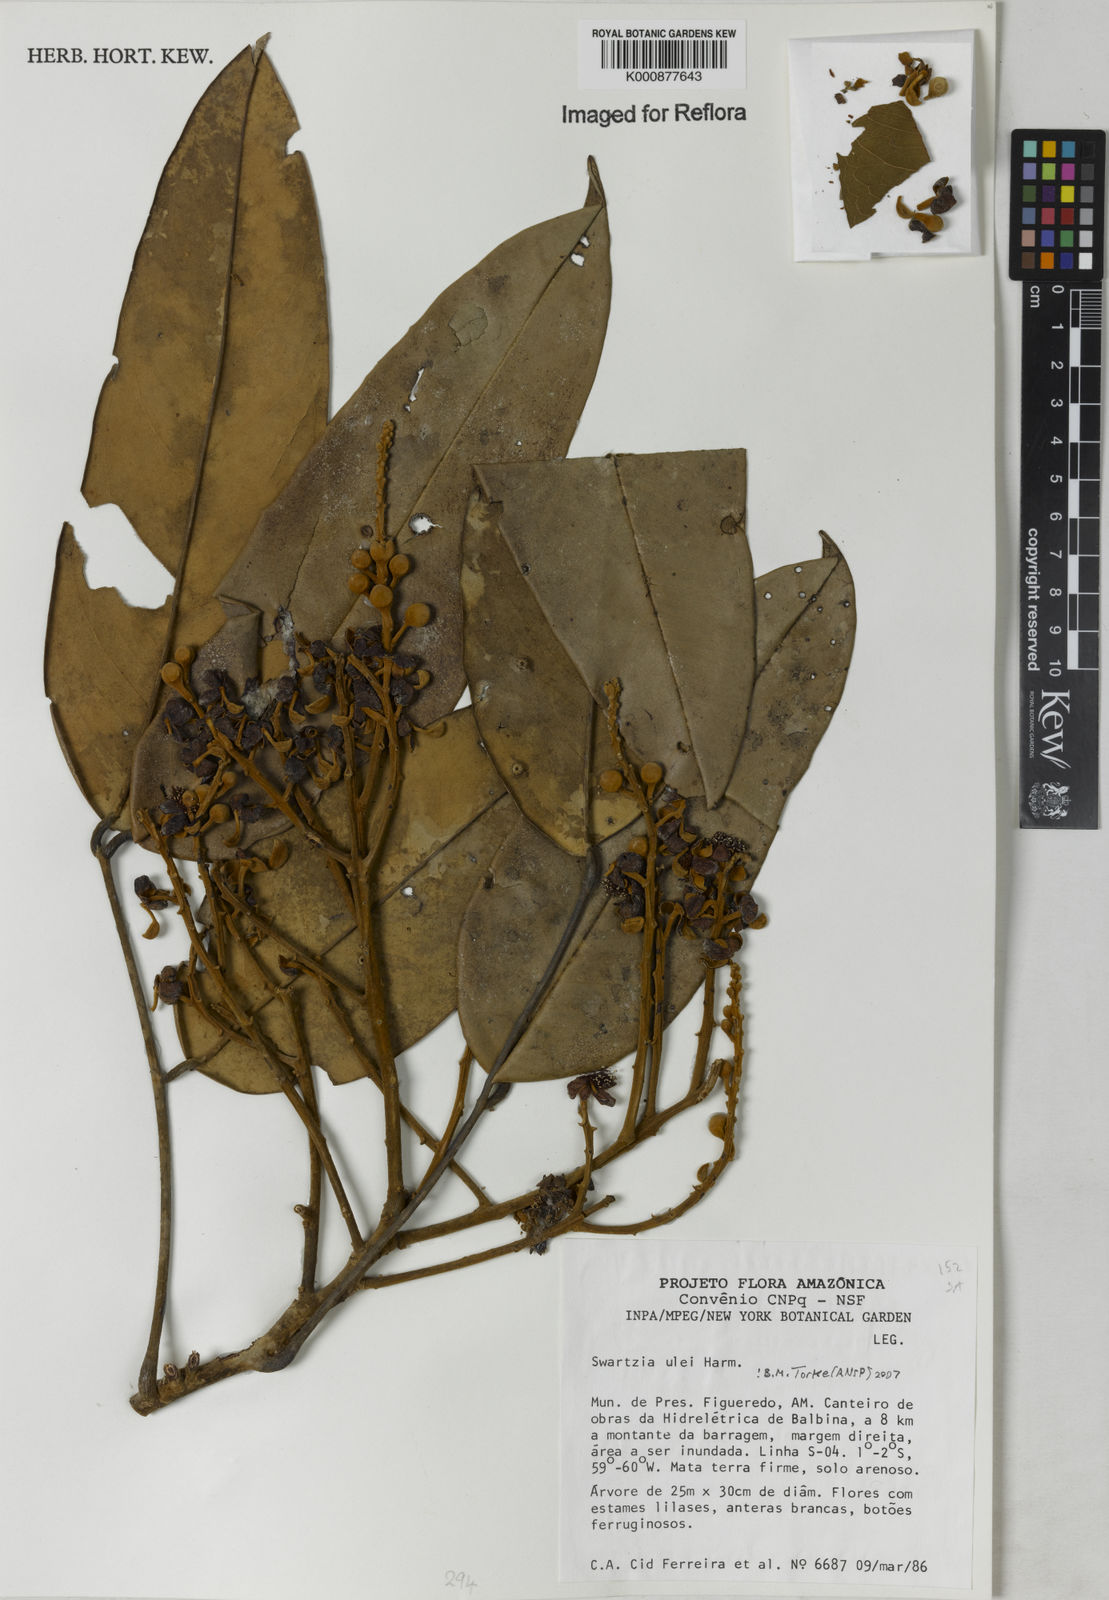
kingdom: Plantae
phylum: Tracheophyta
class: Magnoliopsida
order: Fabales
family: Fabaceae
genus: Swartzia
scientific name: Swartzia ulei
